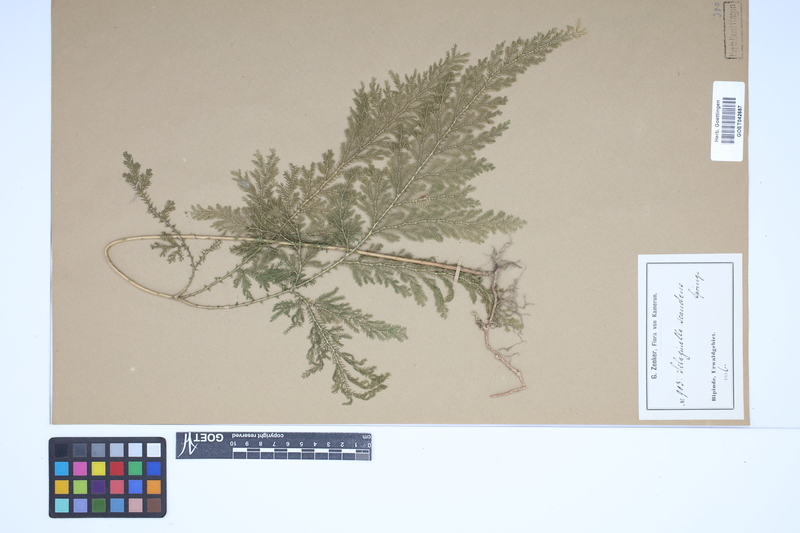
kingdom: Plantae
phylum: Tracheophyta
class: Lycopodiopsida
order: Selaginellales
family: Selaginellaceae
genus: Selaginella
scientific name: Selaginella myosurus
